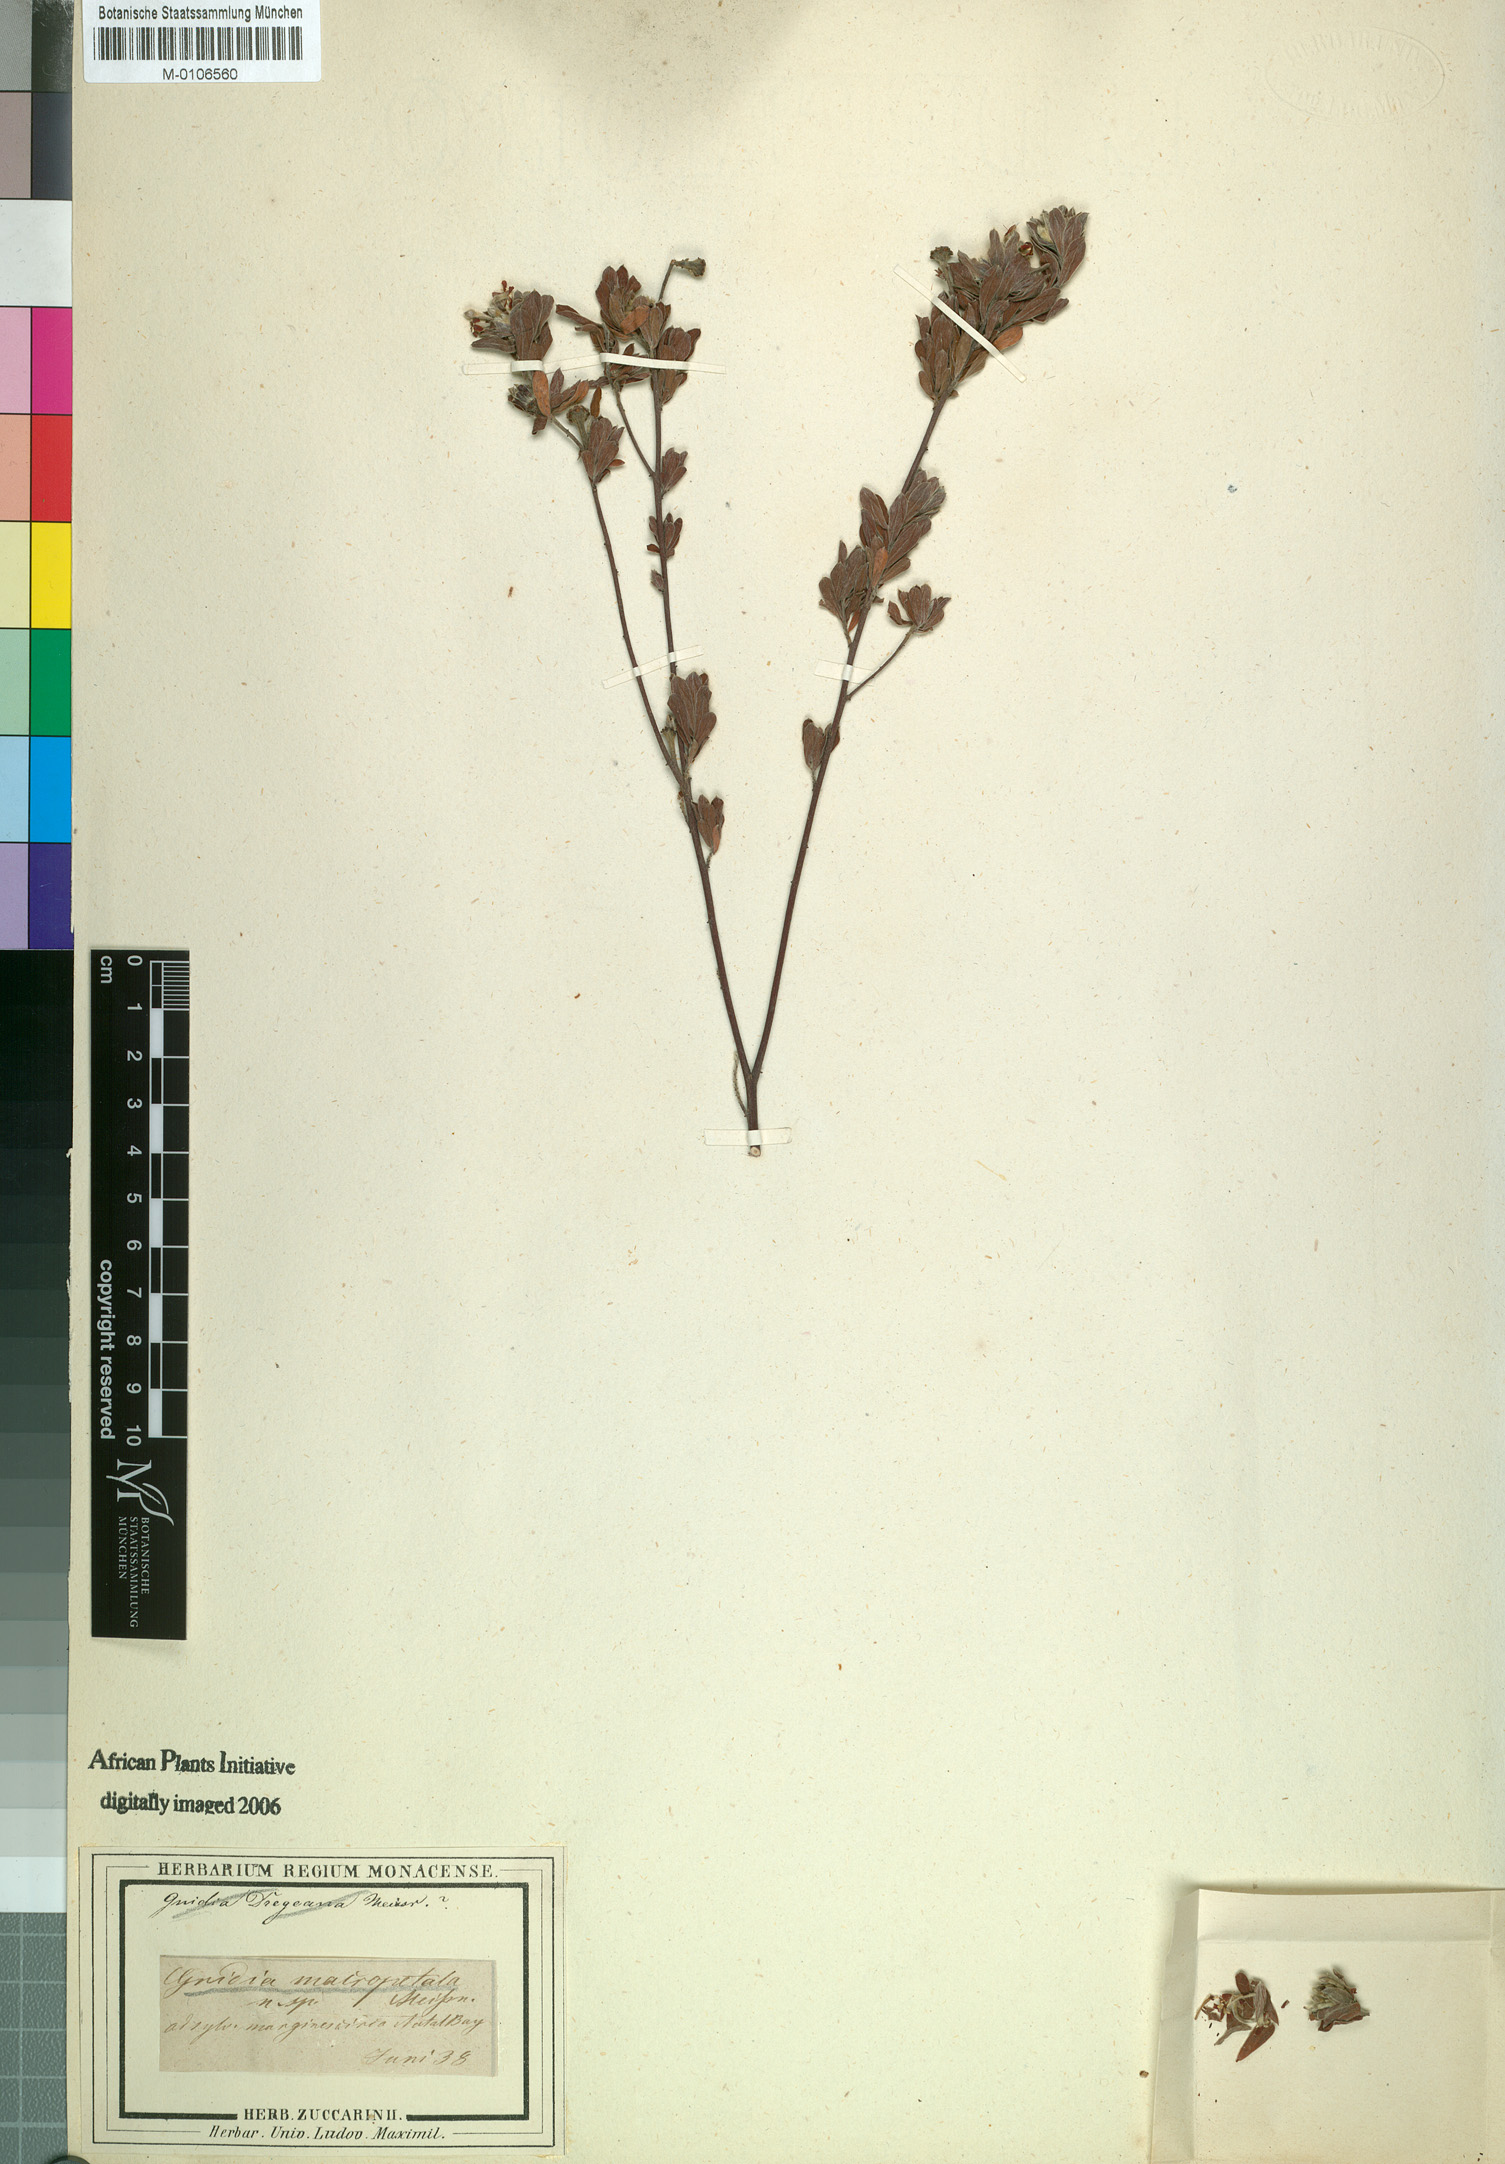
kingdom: Plantae
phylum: Tracheophyta
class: Magnoliopsida
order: Malvales
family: Thymelaeaceae
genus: Gnidia
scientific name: Gnidia macropetala
